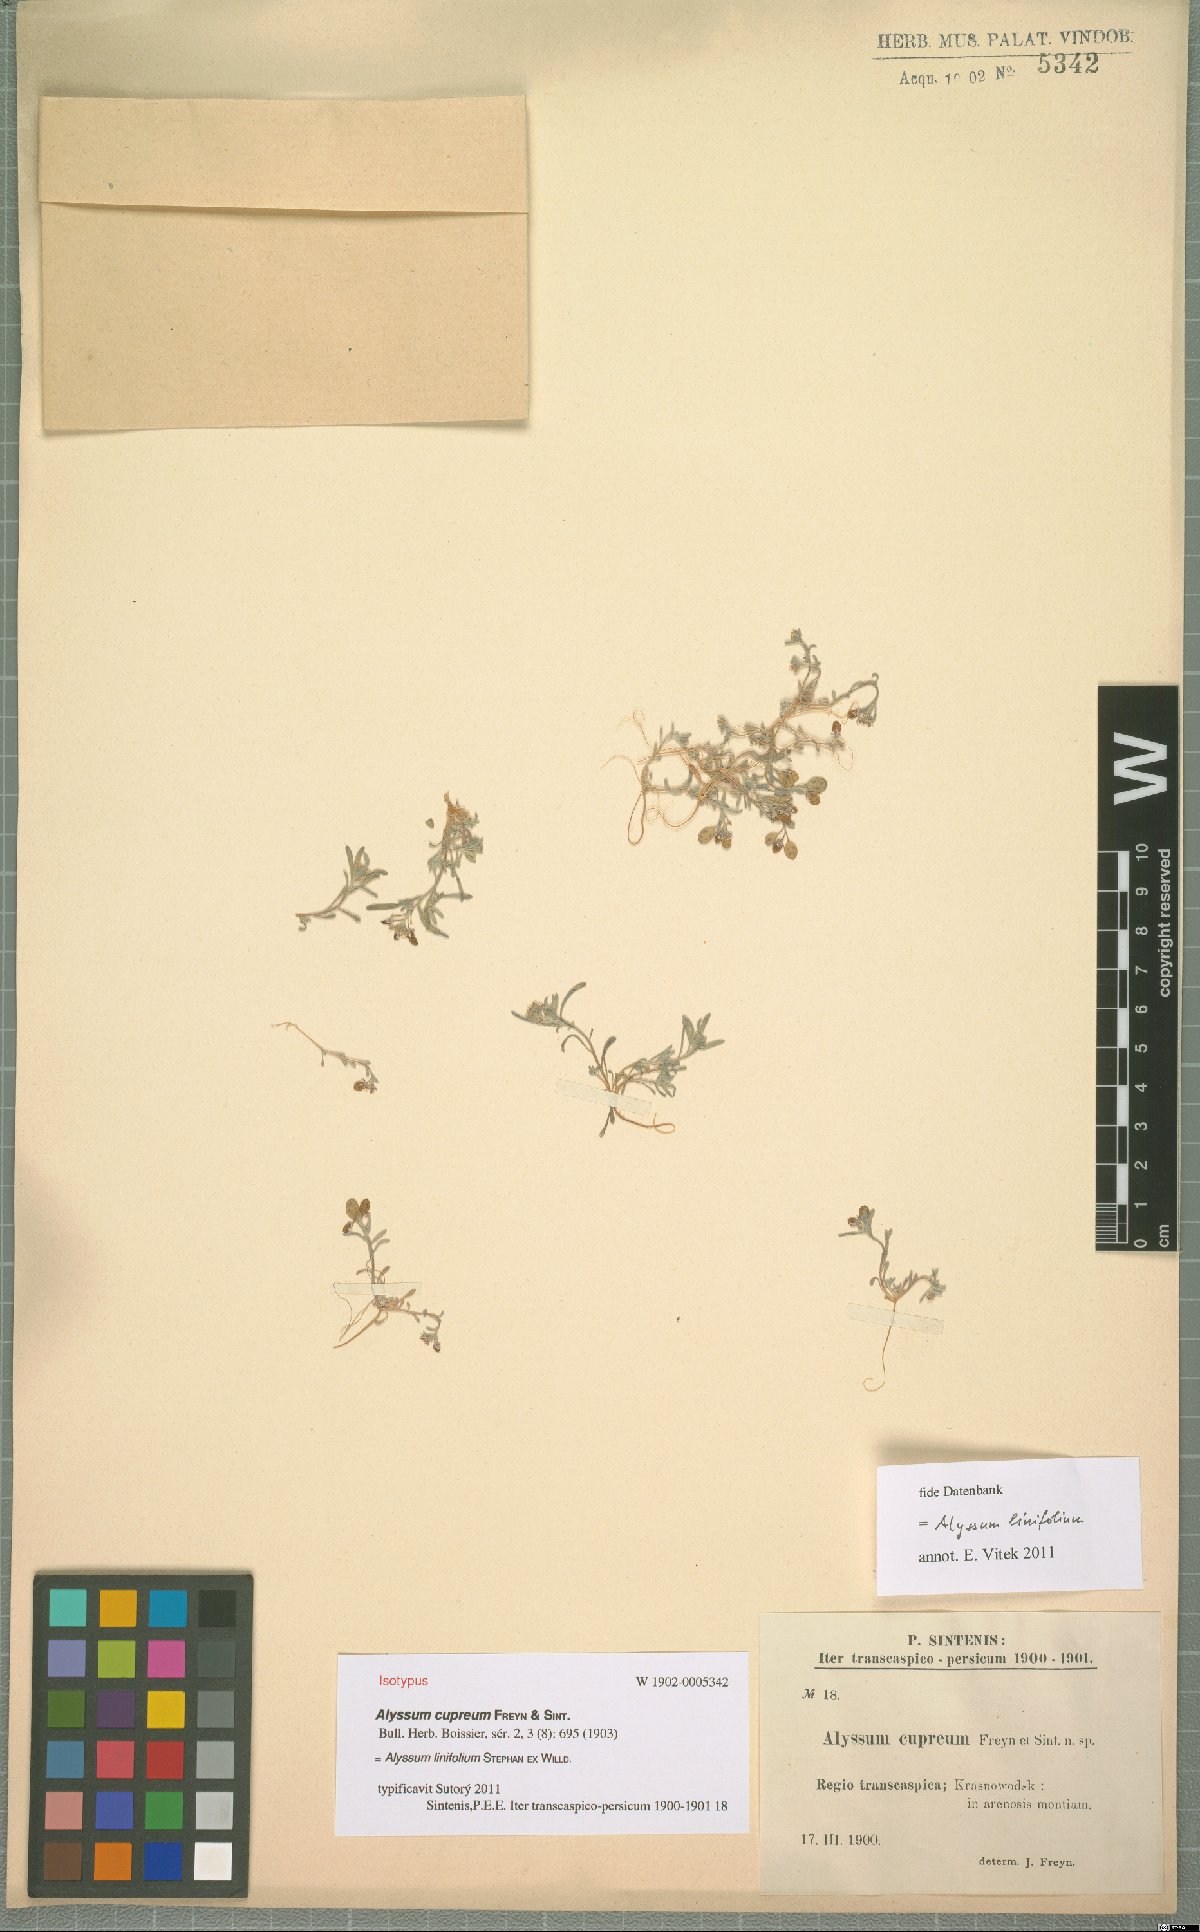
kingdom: Plantae
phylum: Tracheophyta
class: Magnoliopsida
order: Brassicales
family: Brassicaceae
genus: Meniocus
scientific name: Meniocus linifolius
